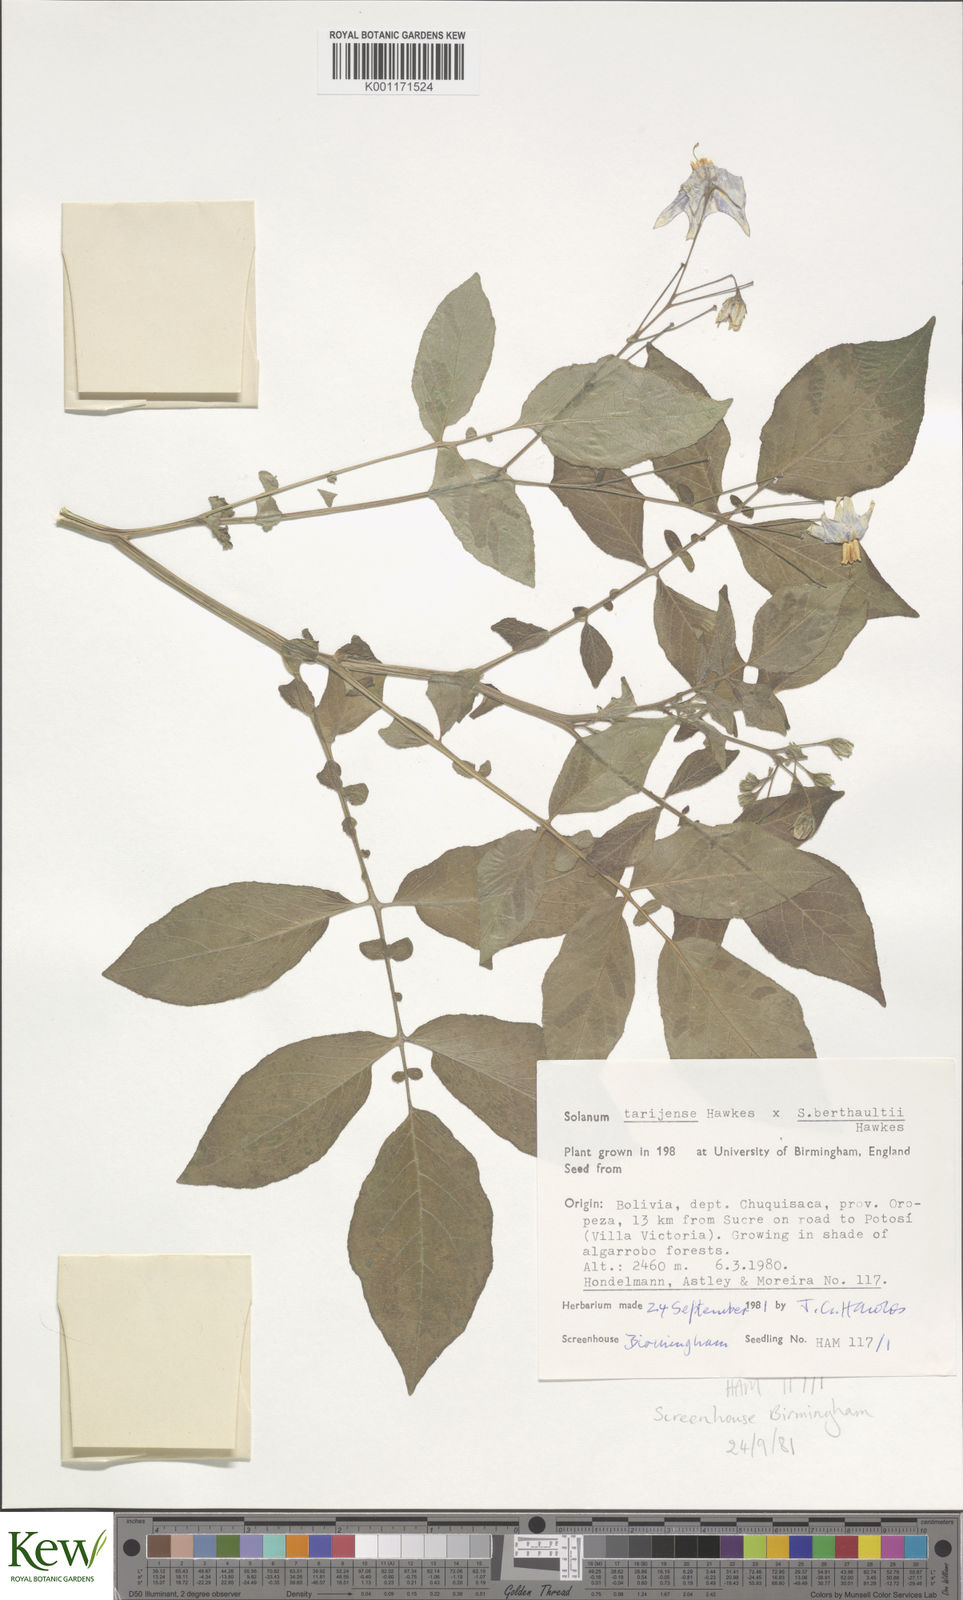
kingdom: Plantae
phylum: Tracheophyta
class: Magnoliopsida
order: Solanales
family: Solanaceae
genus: Solanum
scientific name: Solanum tarijense
